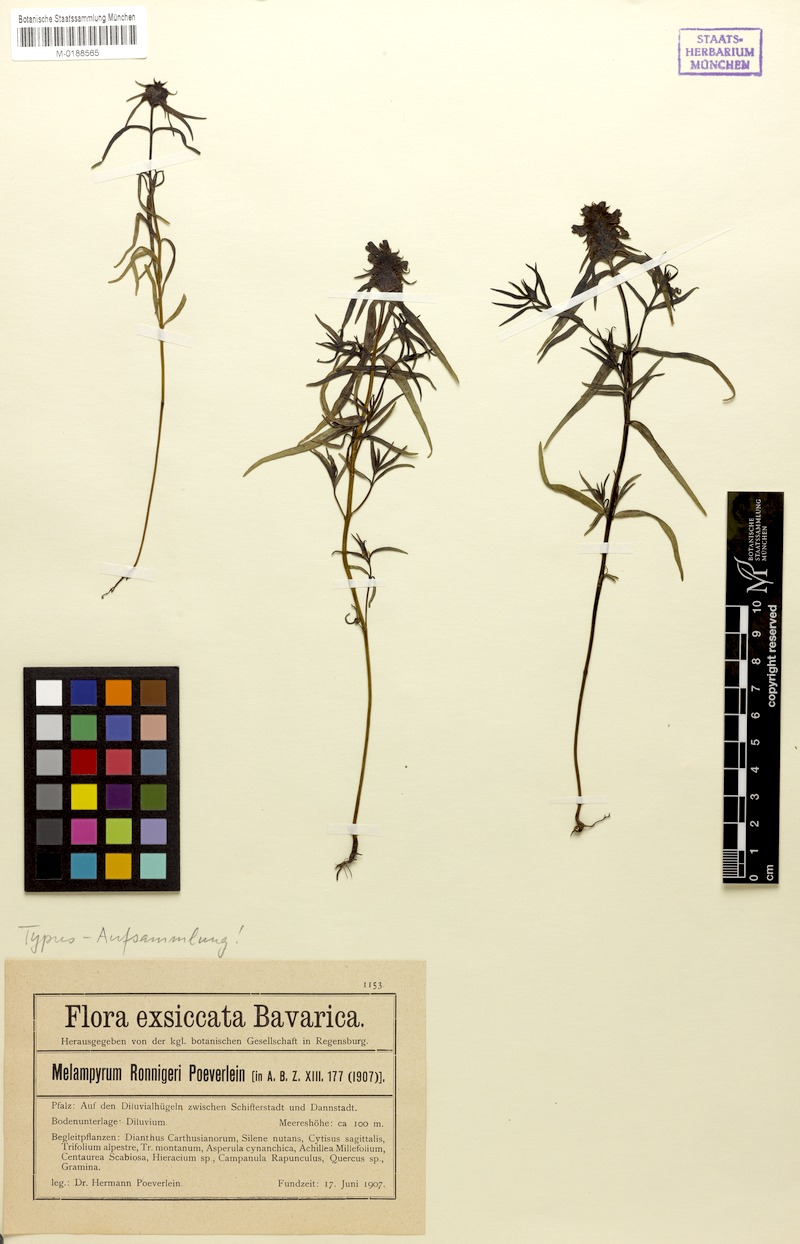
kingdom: Plantae
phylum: Tracheophyta
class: Magnoliopsida
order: Lamiales
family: Orobanchaceae
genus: Melampyrum
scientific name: Melampyrum cristatum
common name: Crested cow-wheat
